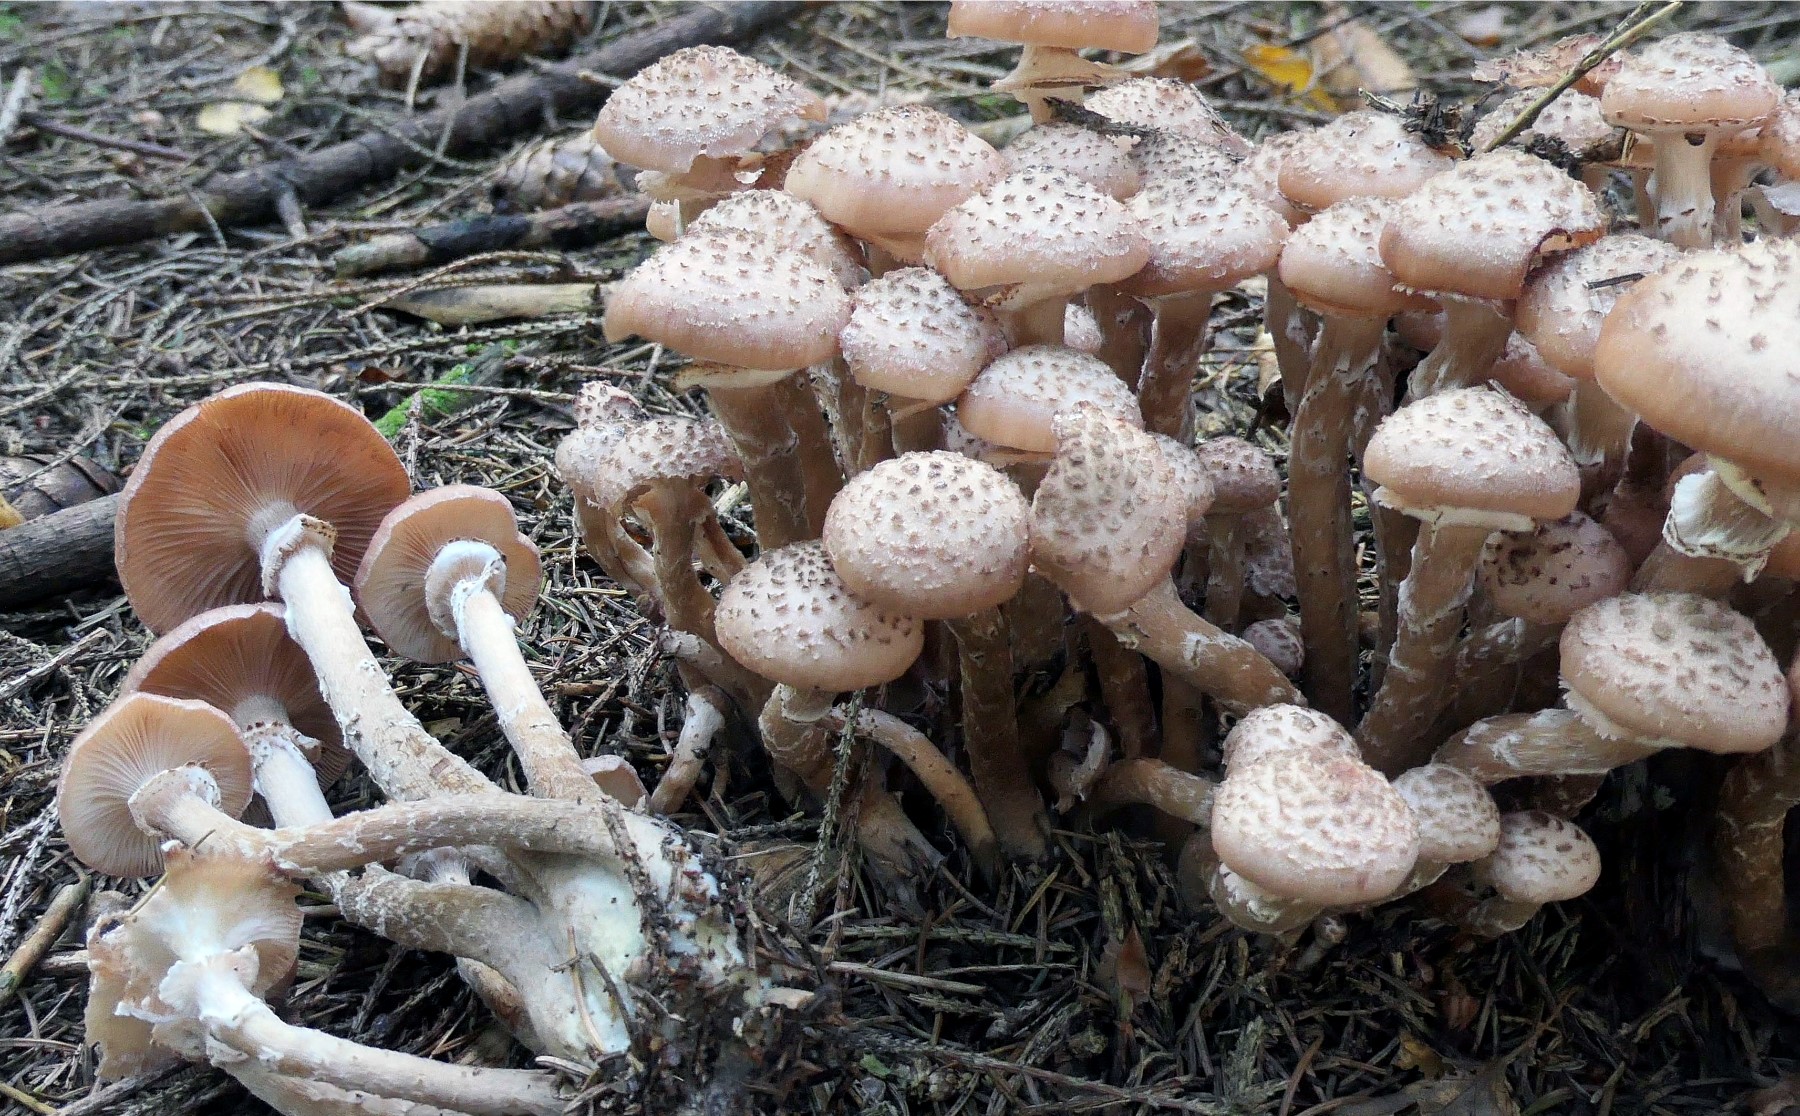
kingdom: Fungi
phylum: Basidiomycota
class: Agaricomycetes
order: Agaricales
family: Physalacriaceae
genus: Armillaria
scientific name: Armillaria ostoyae
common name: mørk honningsvamp
